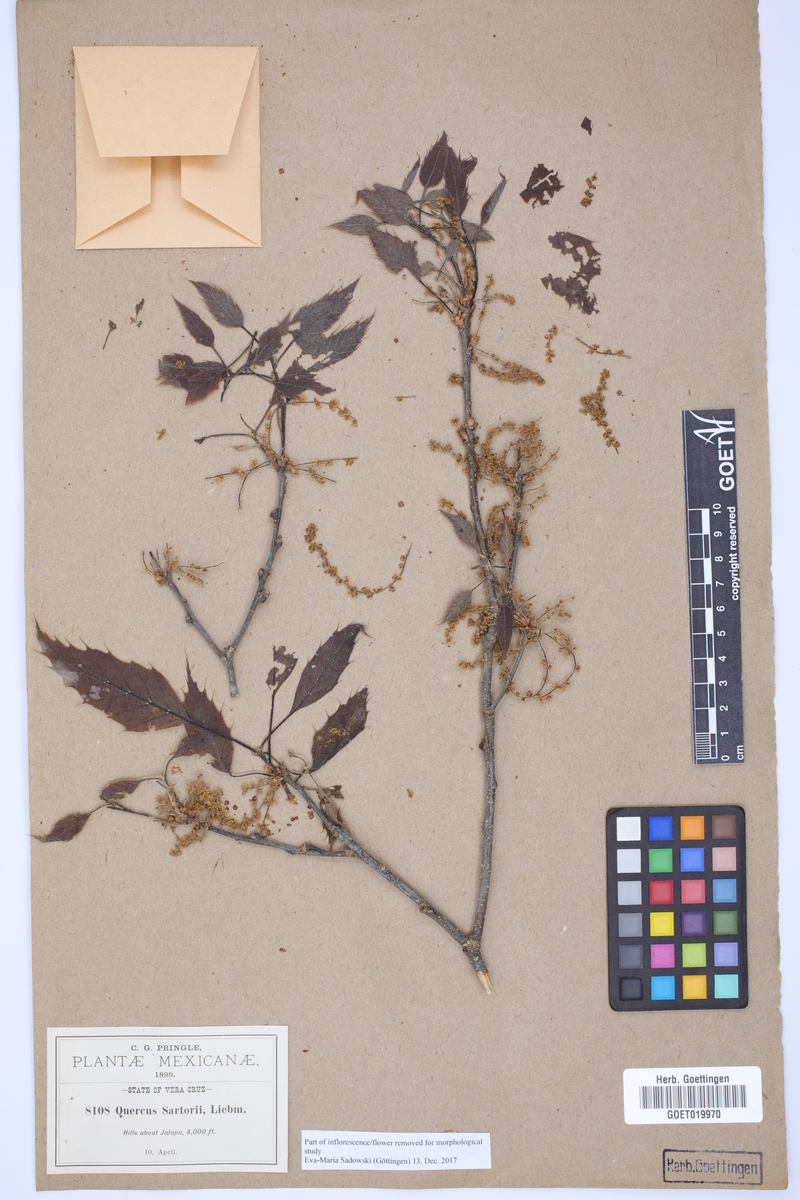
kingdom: Plantae
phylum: Tracheophyta
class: Magnoliopsida
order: Fagales
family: Fagaceae
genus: Quercus
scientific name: Quercus sartorii
